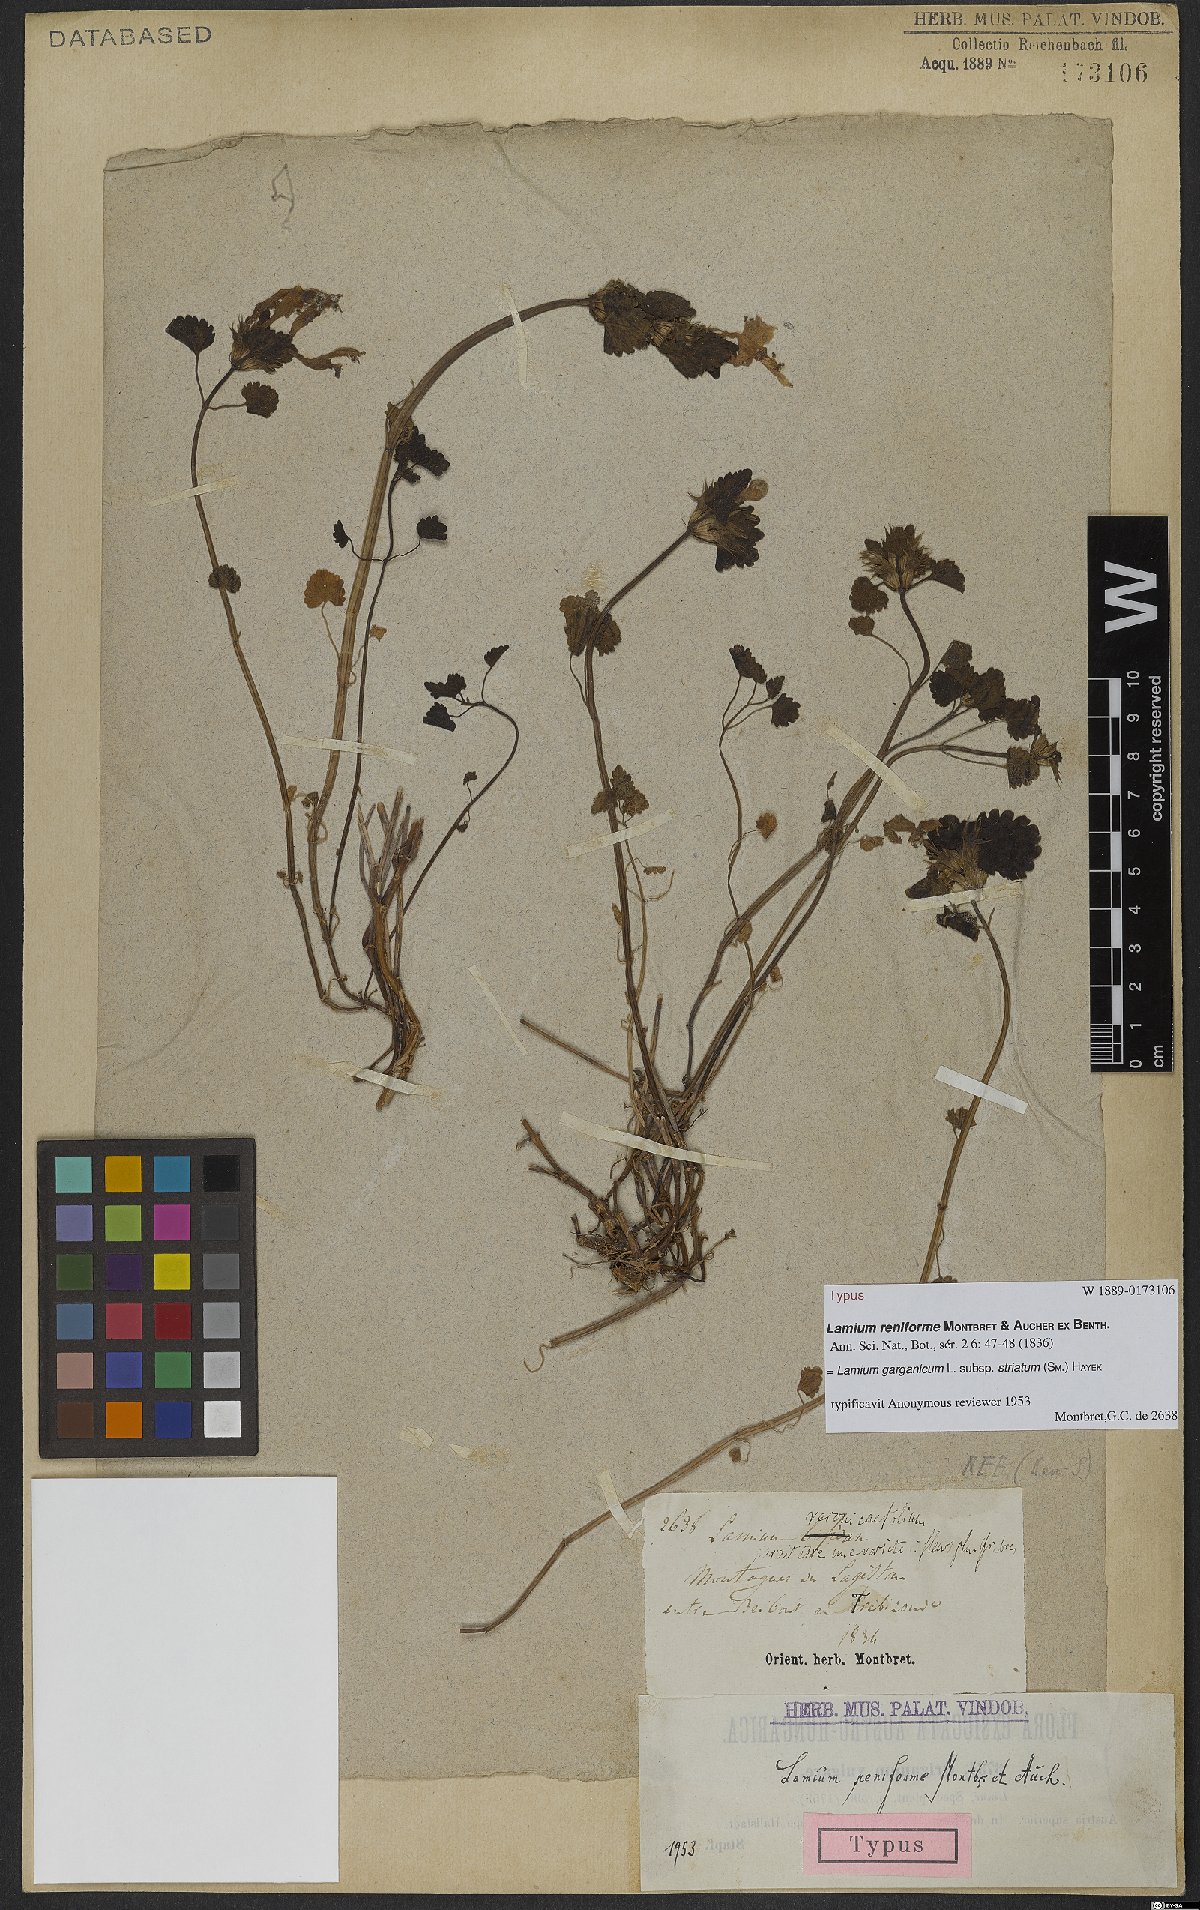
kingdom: Plantae
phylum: Tracheophyta
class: Magnoliopsida
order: Lamiales
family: Lamiaceae
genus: Lamium
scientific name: Lamium garganicum
